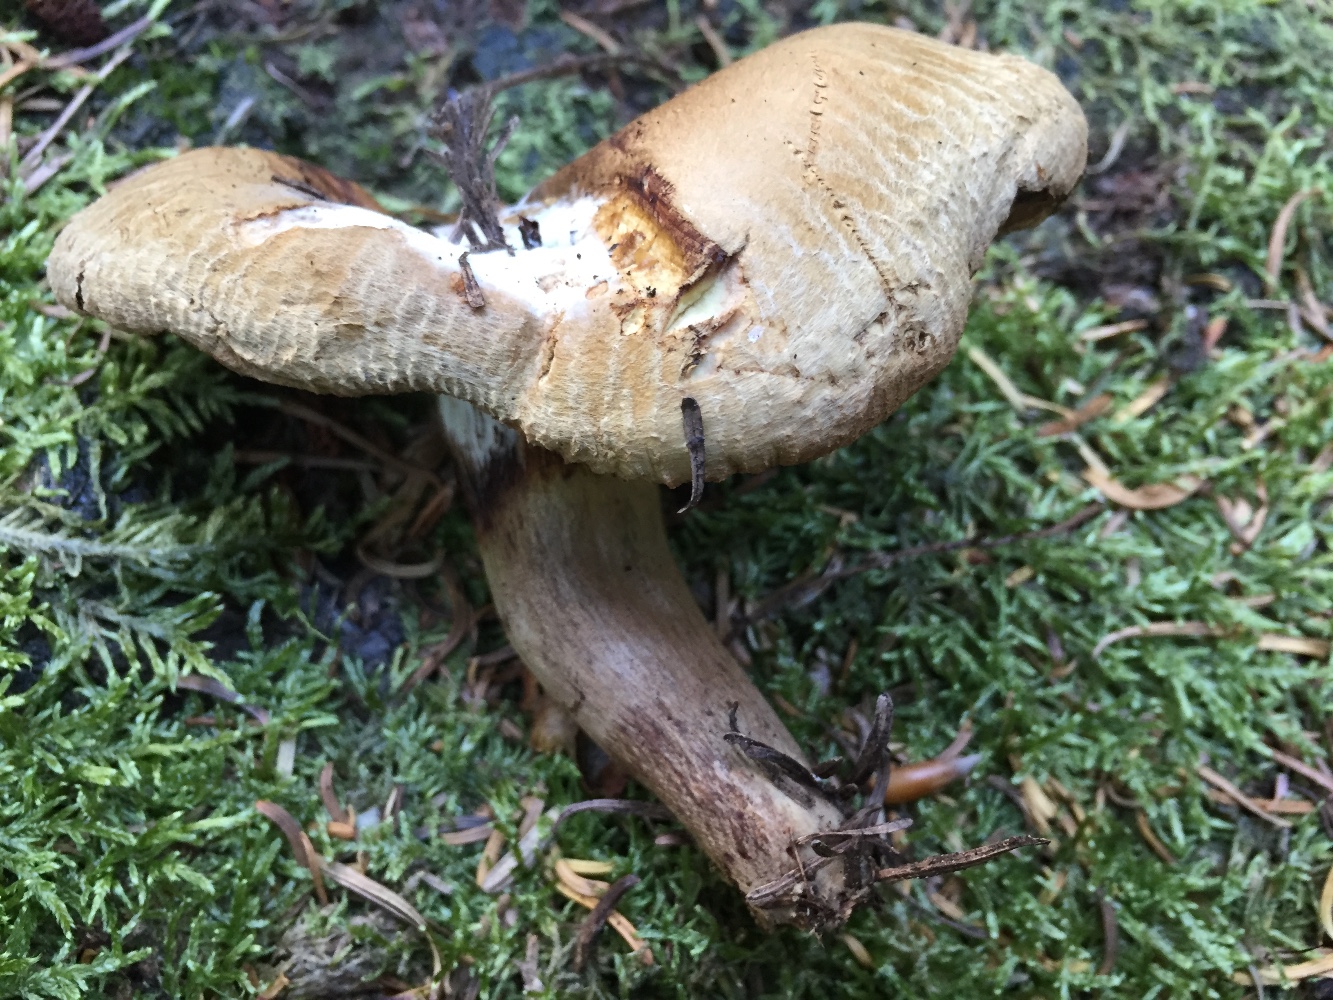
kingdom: Fungi
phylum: Ascomycota
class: Sordariomycetes
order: Hypocreales
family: Hypocreaceae
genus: Hypomyces
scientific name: Hypomyces
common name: snylteskorpe
